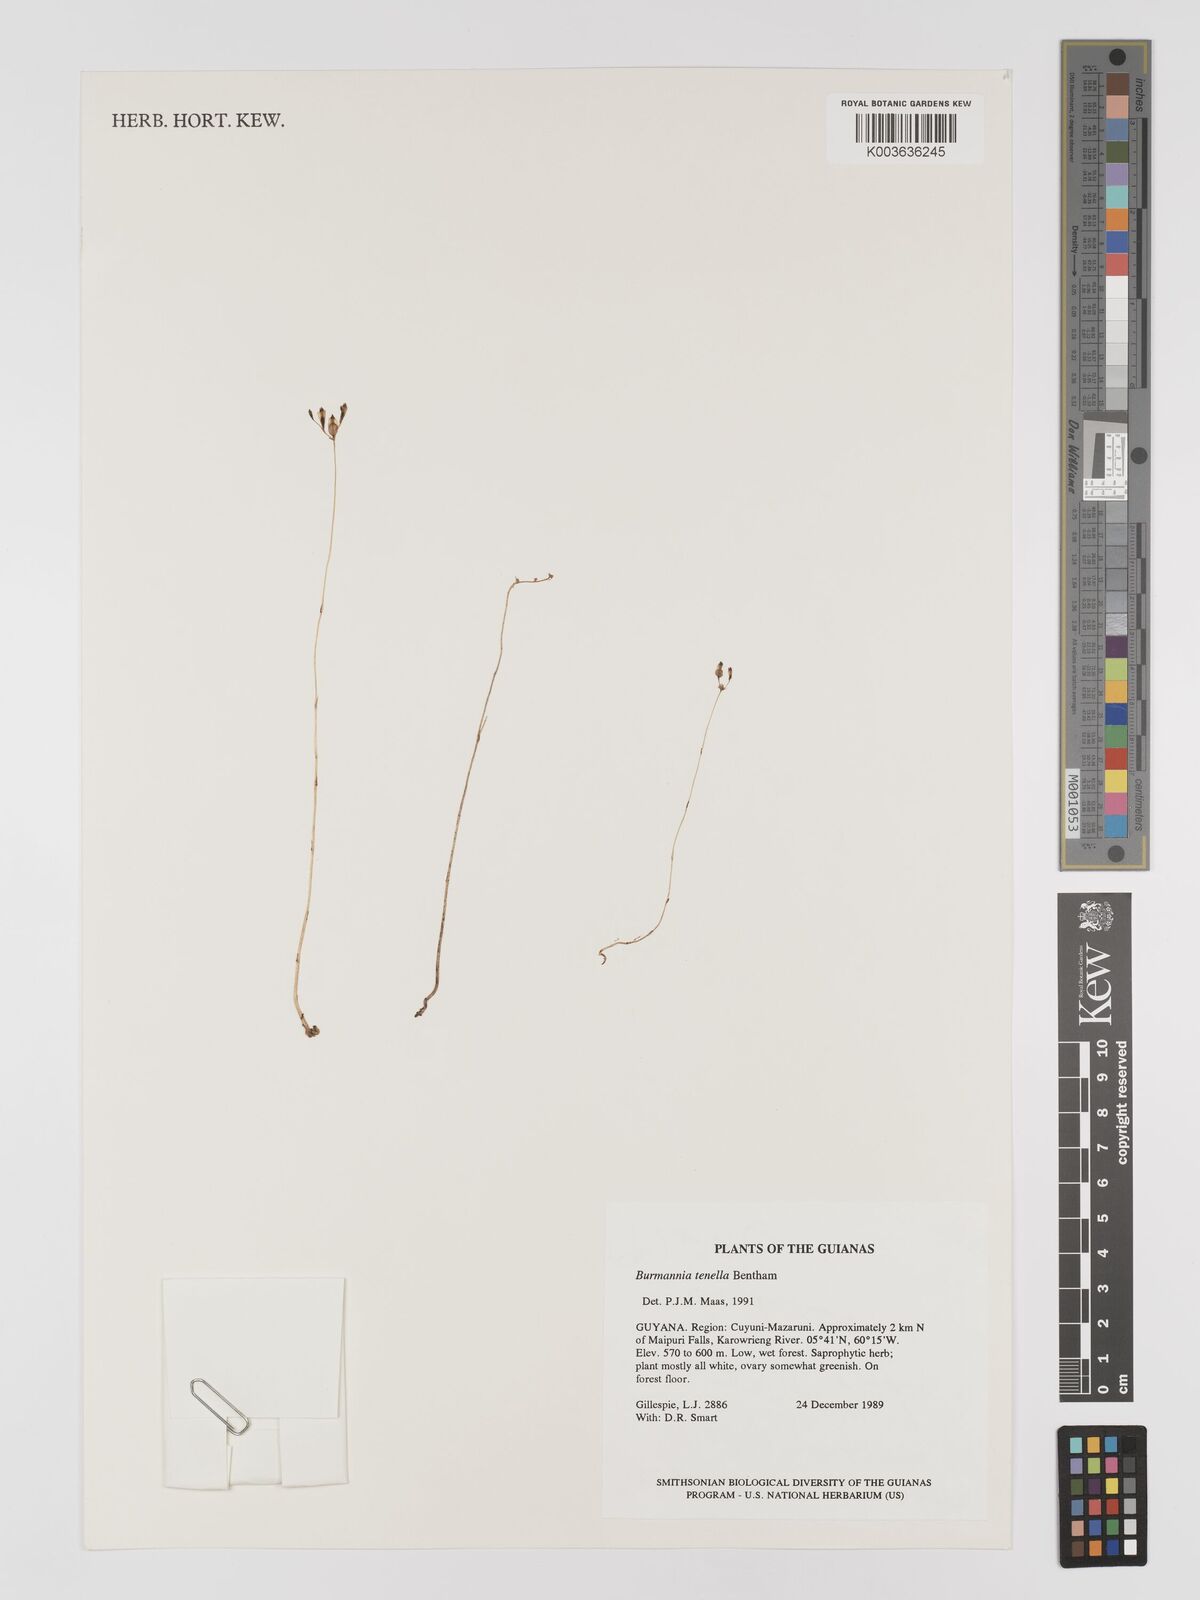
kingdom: Plantae
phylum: Tracheophyta
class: Liliopsida
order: Dioscoreales
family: Burmanniaceae
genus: Burmannia
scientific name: Burmannia tenella
